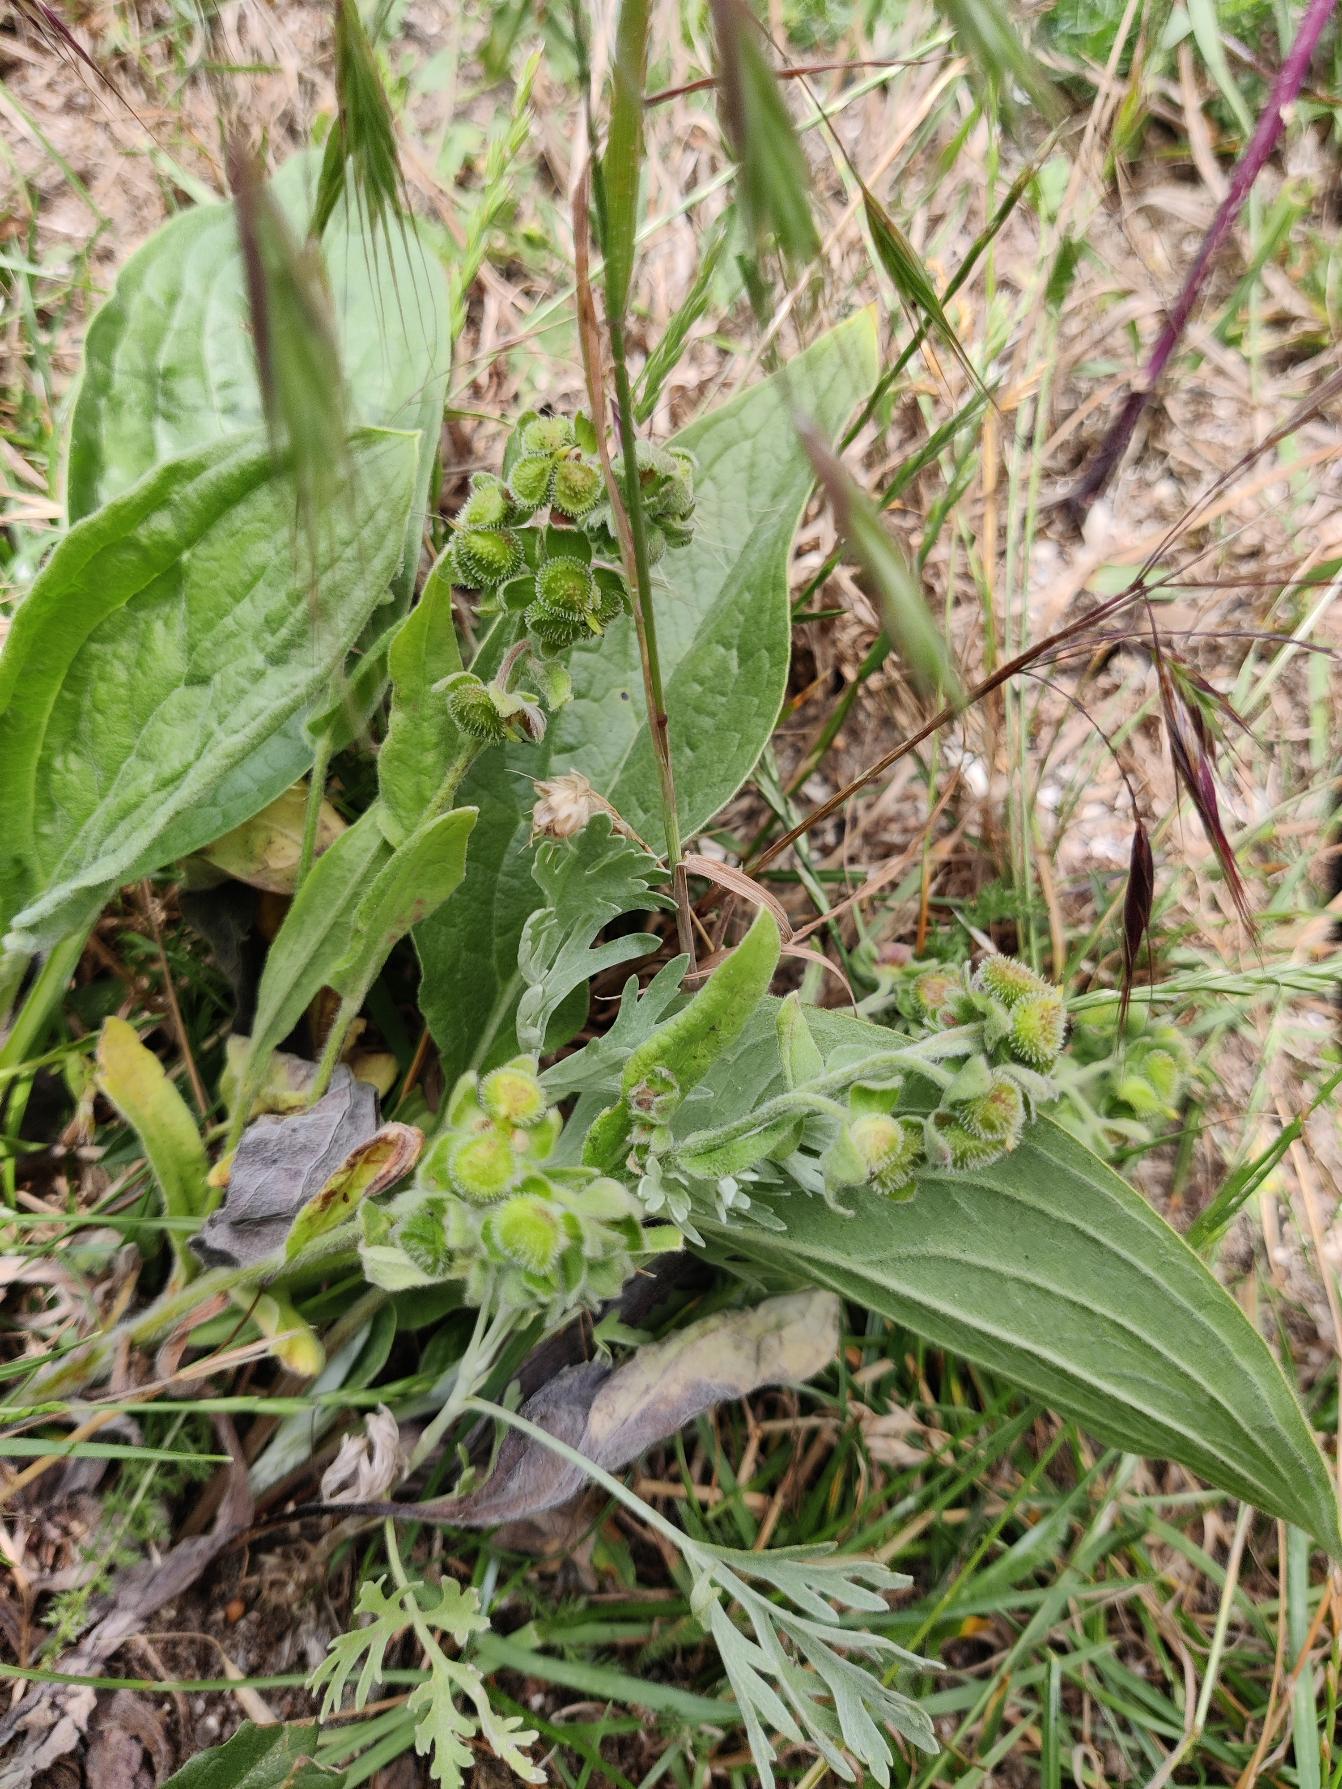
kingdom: Plantae
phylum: Tracheophyta
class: Magnoliopsida
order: Boraginales
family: Boraginaceae
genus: Cynoglossum
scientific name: Cynoglossum officinale
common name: Hundetunge
